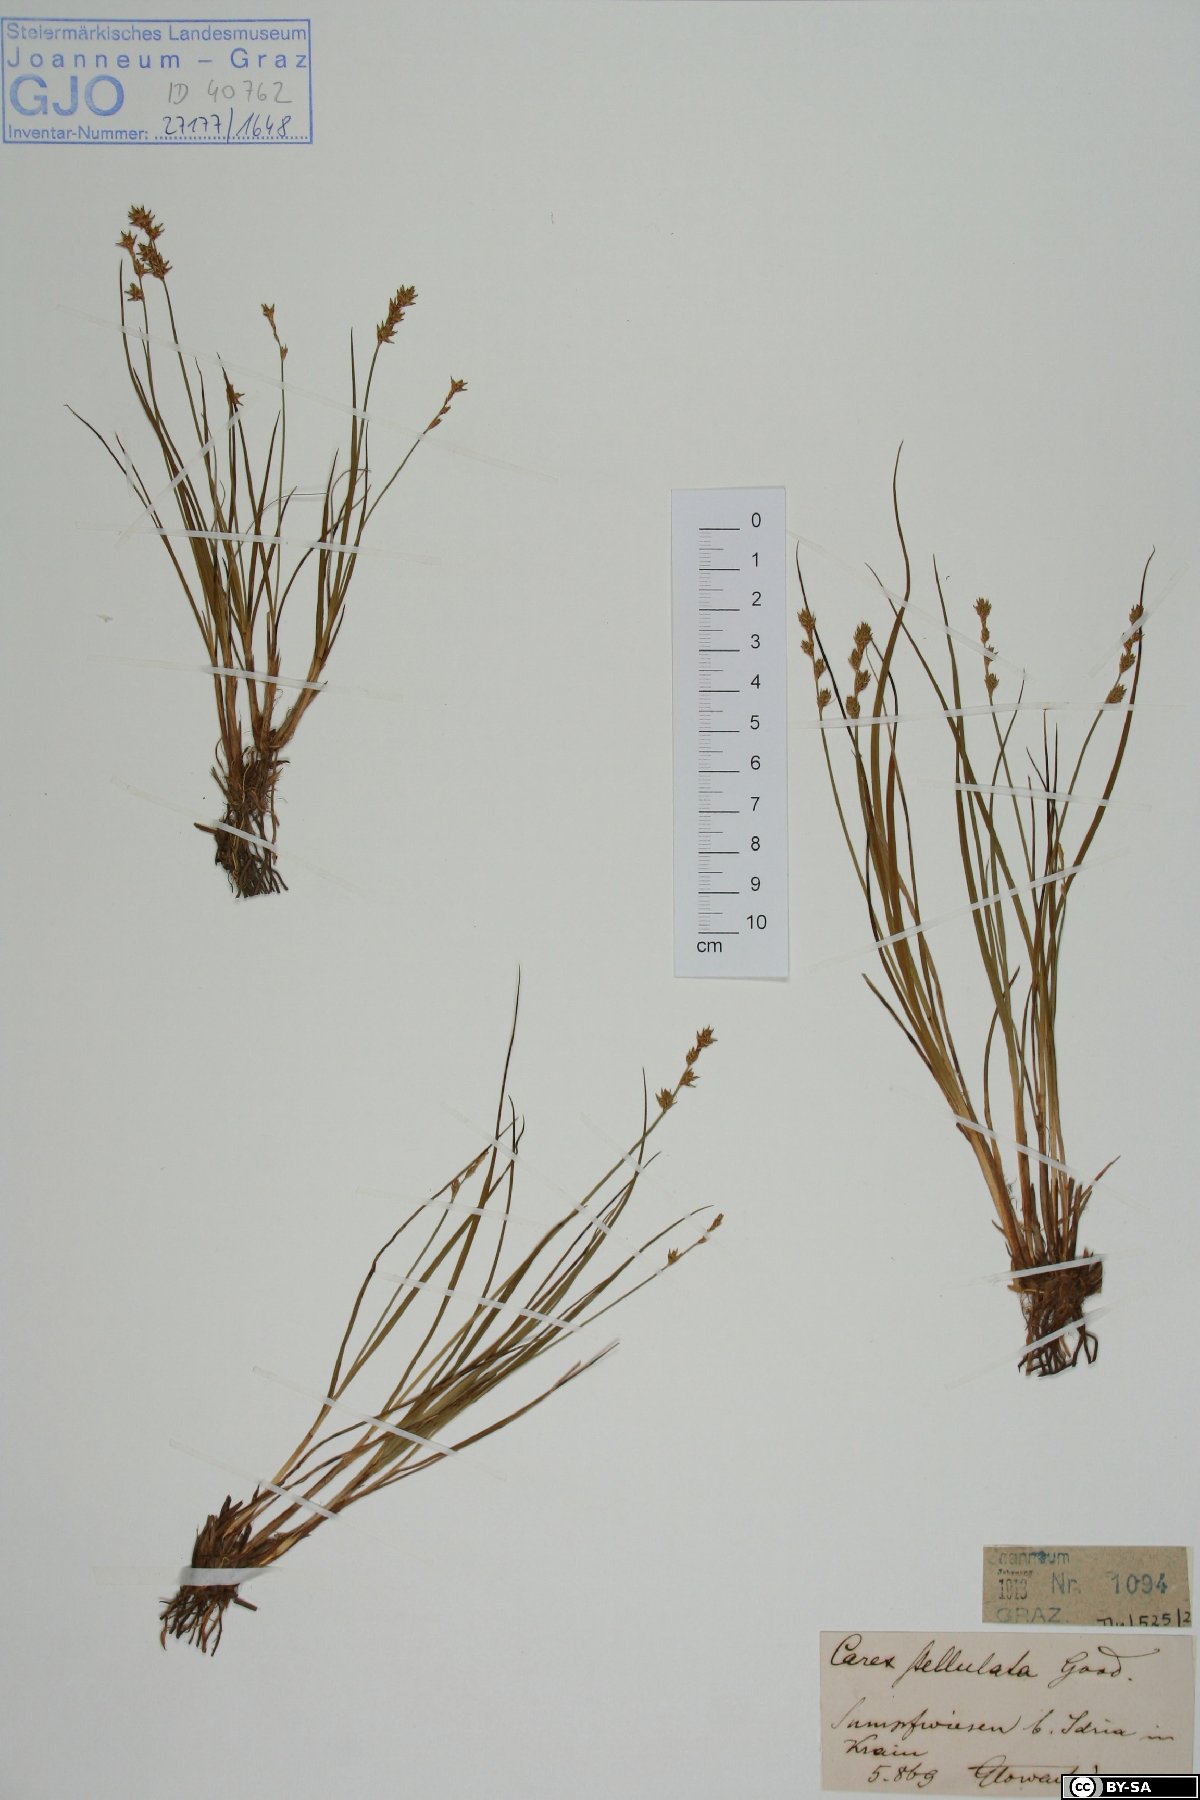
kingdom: Plantae
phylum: Tracheophyta
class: Liliopsida
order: Poales
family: Cyperaceae
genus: Carex
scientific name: Carex echinata
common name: Star sedge
